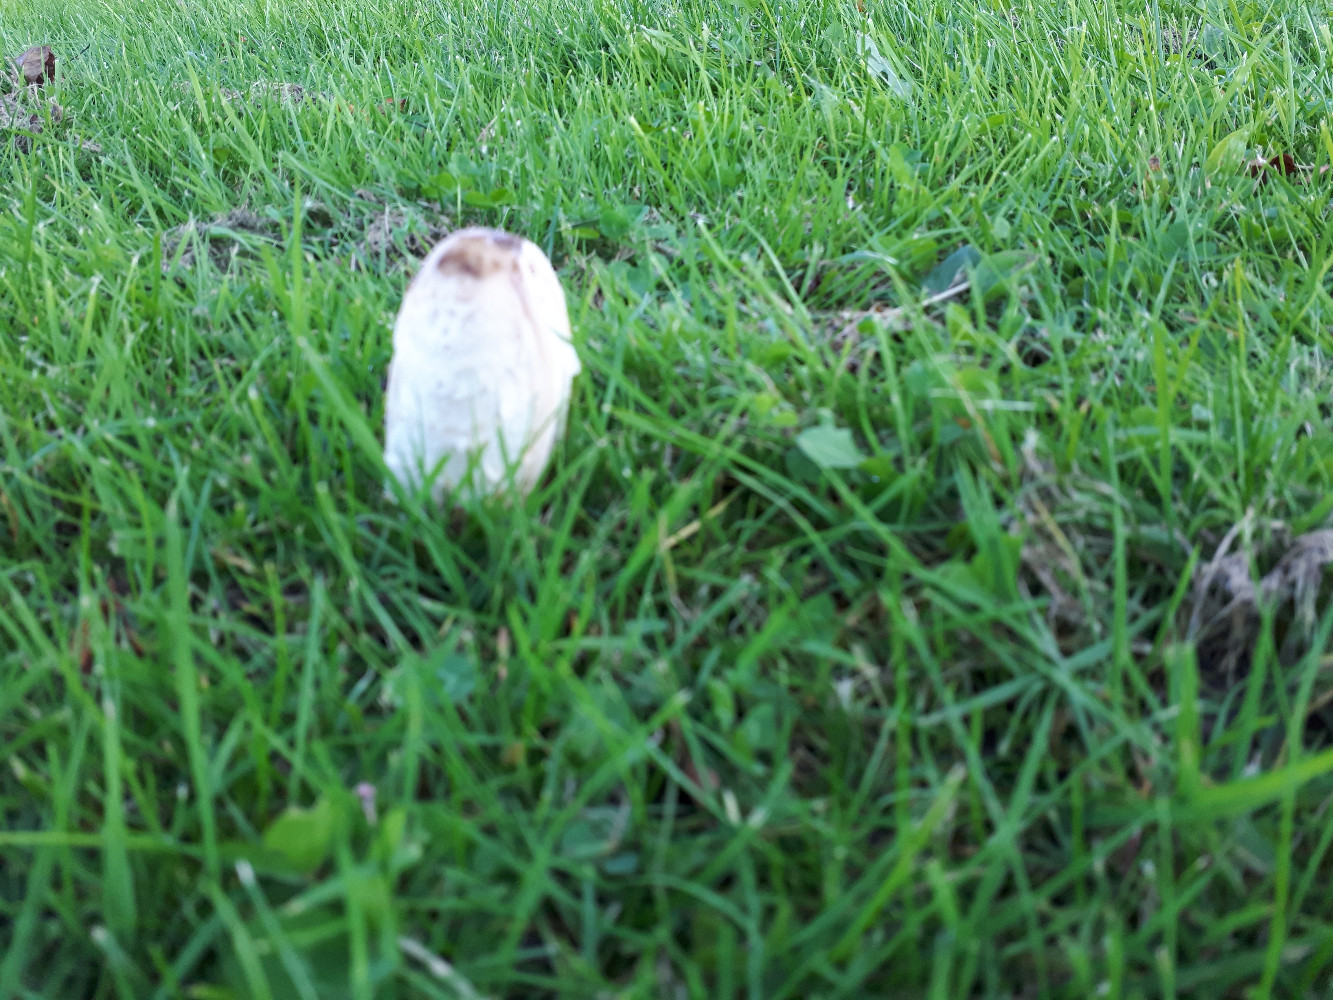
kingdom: Fungi
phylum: Basidiomycota
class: Agaricomycetes
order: Agaricales
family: Agaricaceae
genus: Coprinus
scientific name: Coprinus comatus
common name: stor parykhat
